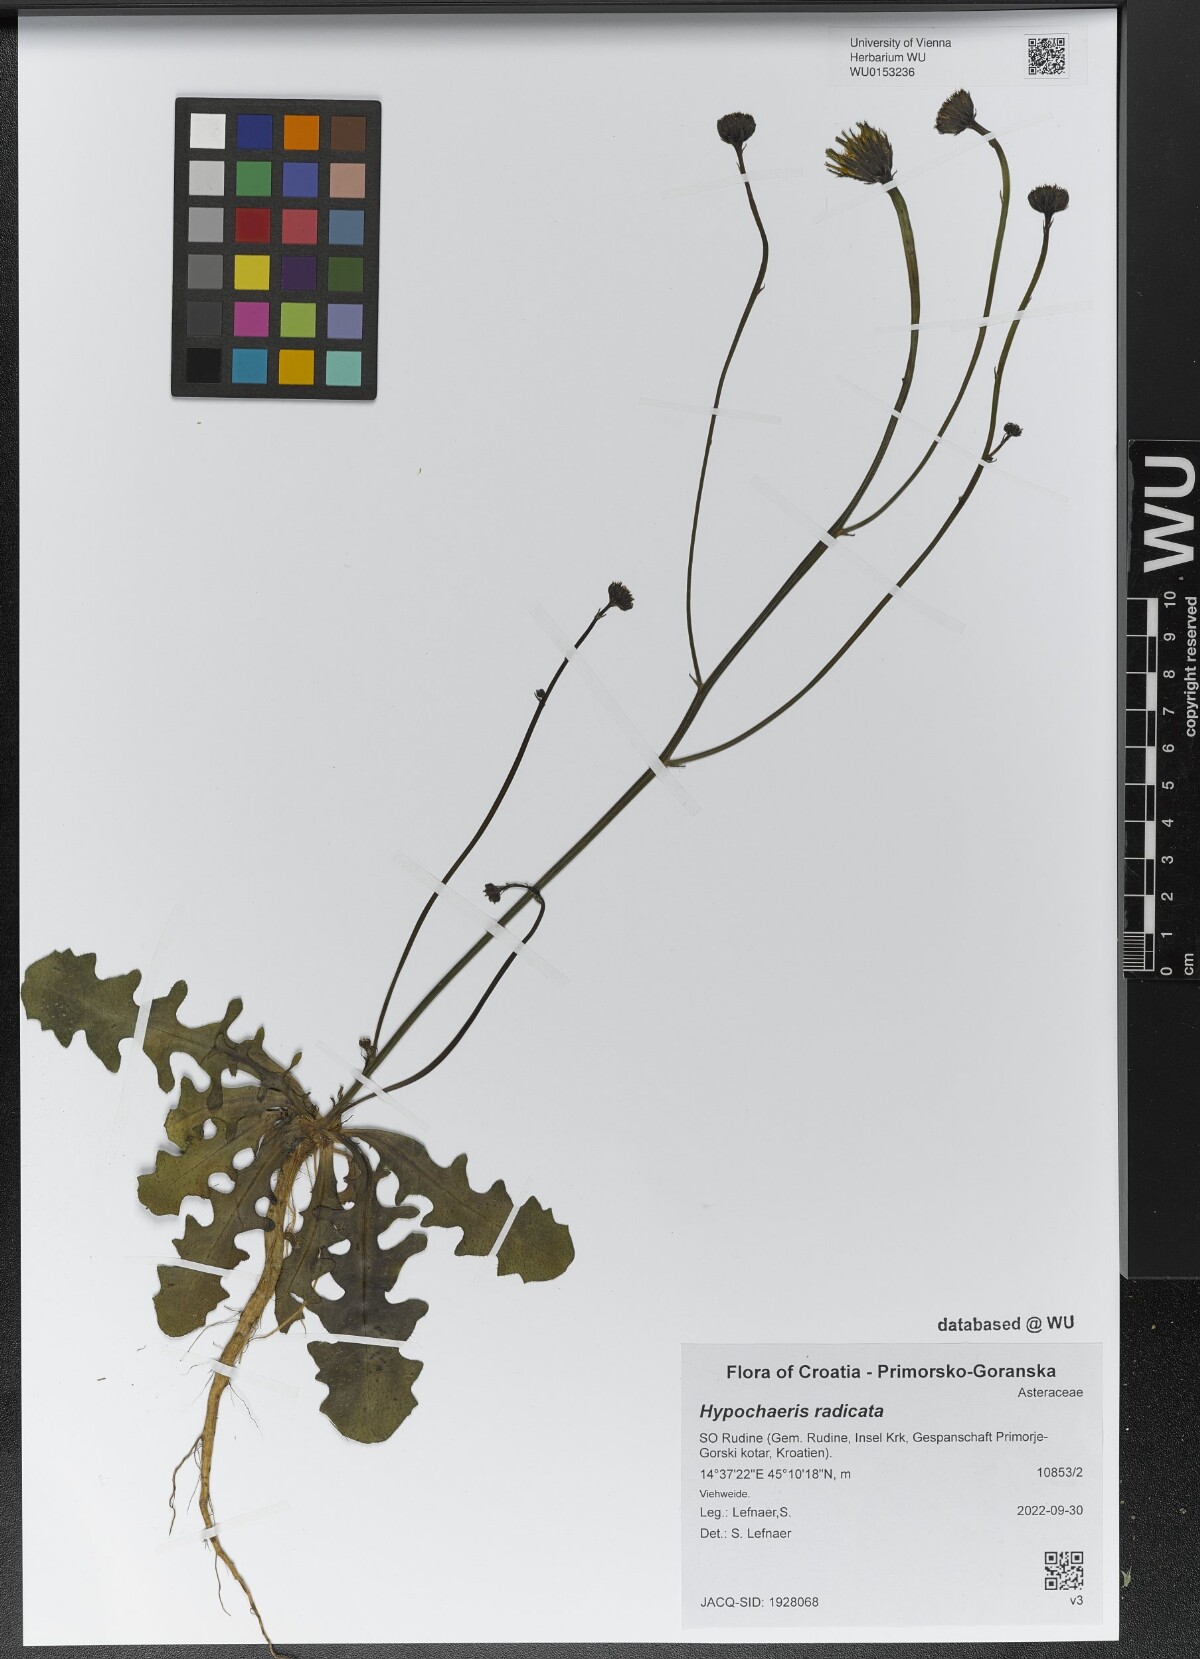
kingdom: Plantae
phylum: Tracheophyta
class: Magnoliopsida
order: Asterales
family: Asteraceae
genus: Hypochaeris
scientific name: Hypochaeris radicata
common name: Flatweed
